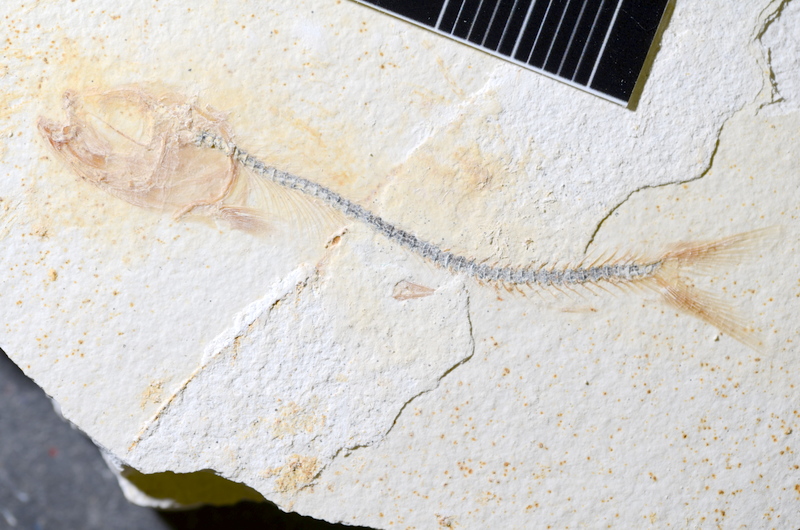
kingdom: Animalia
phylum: Chordata
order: Salmoniformes
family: Orthogonikleithridae
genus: Orthogonikleithrus
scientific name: Orthogonikleithrus hoelli
